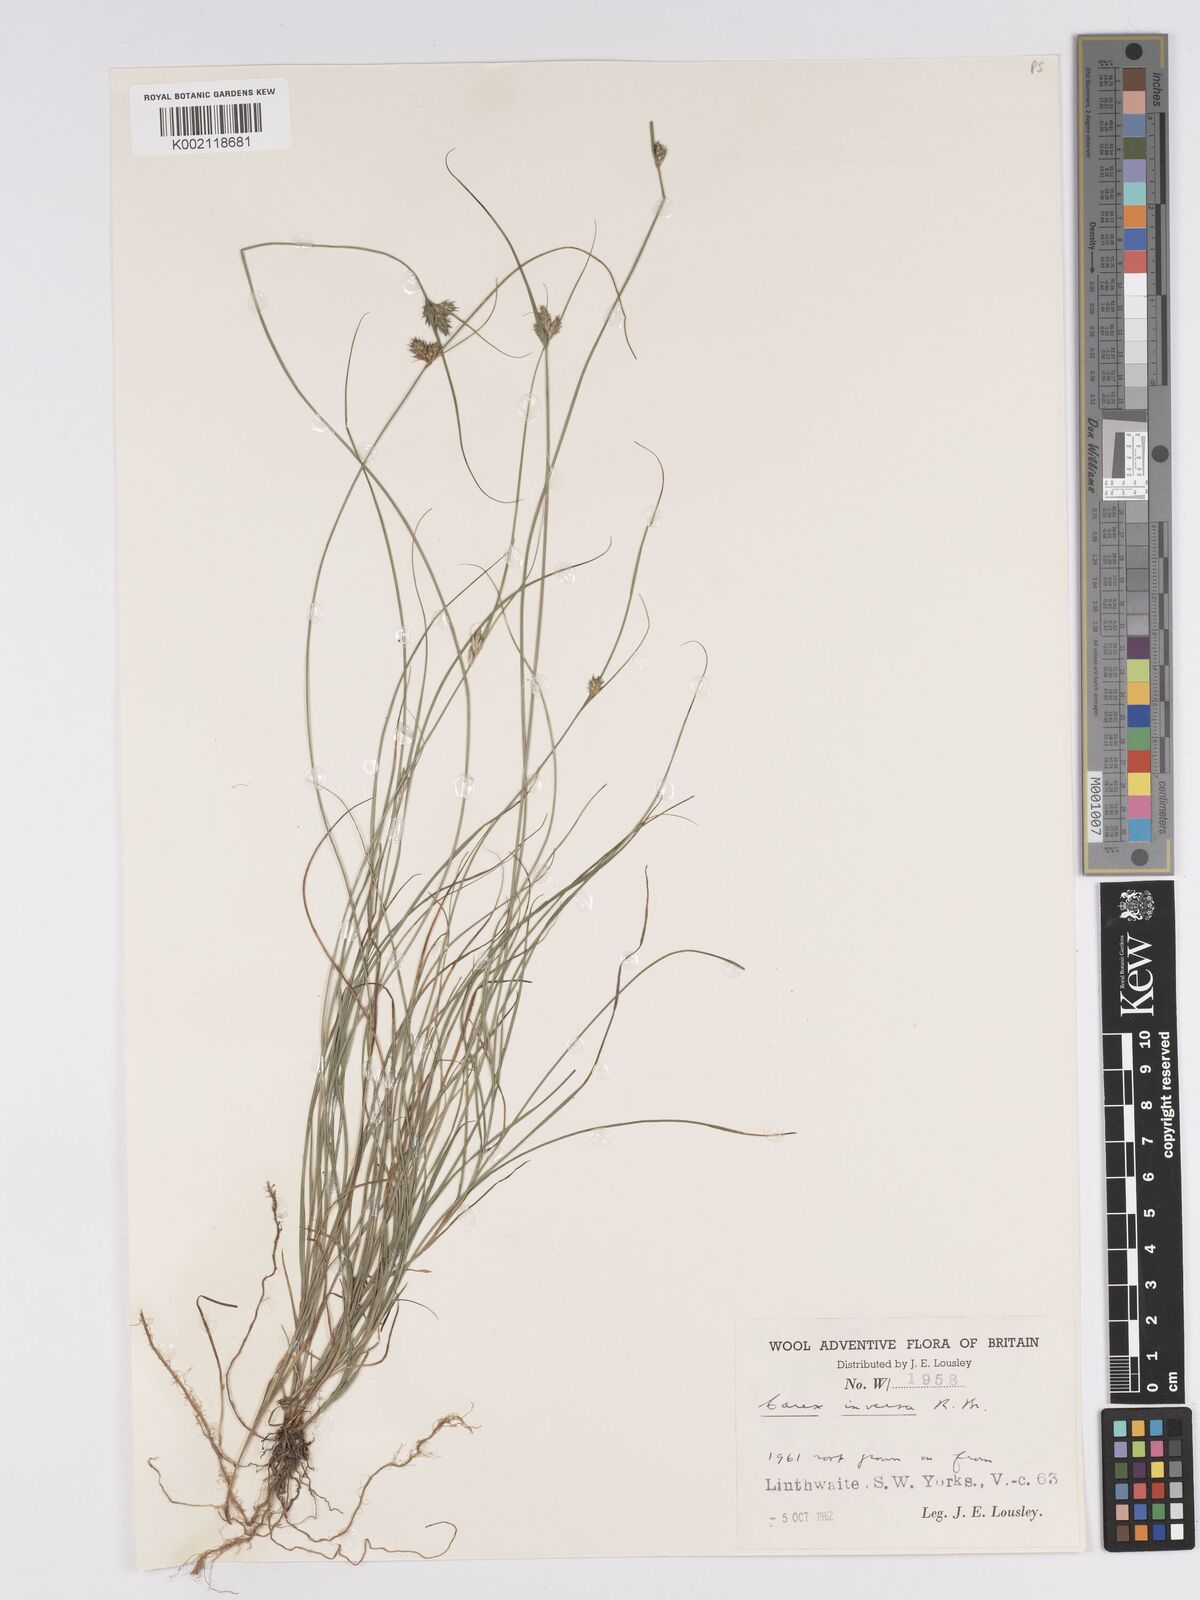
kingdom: Plantae
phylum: Tracheophyta
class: Liliopsida
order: Poales
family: Cyperaceae
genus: Carex
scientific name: Carex inversa
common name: Knob sedge
